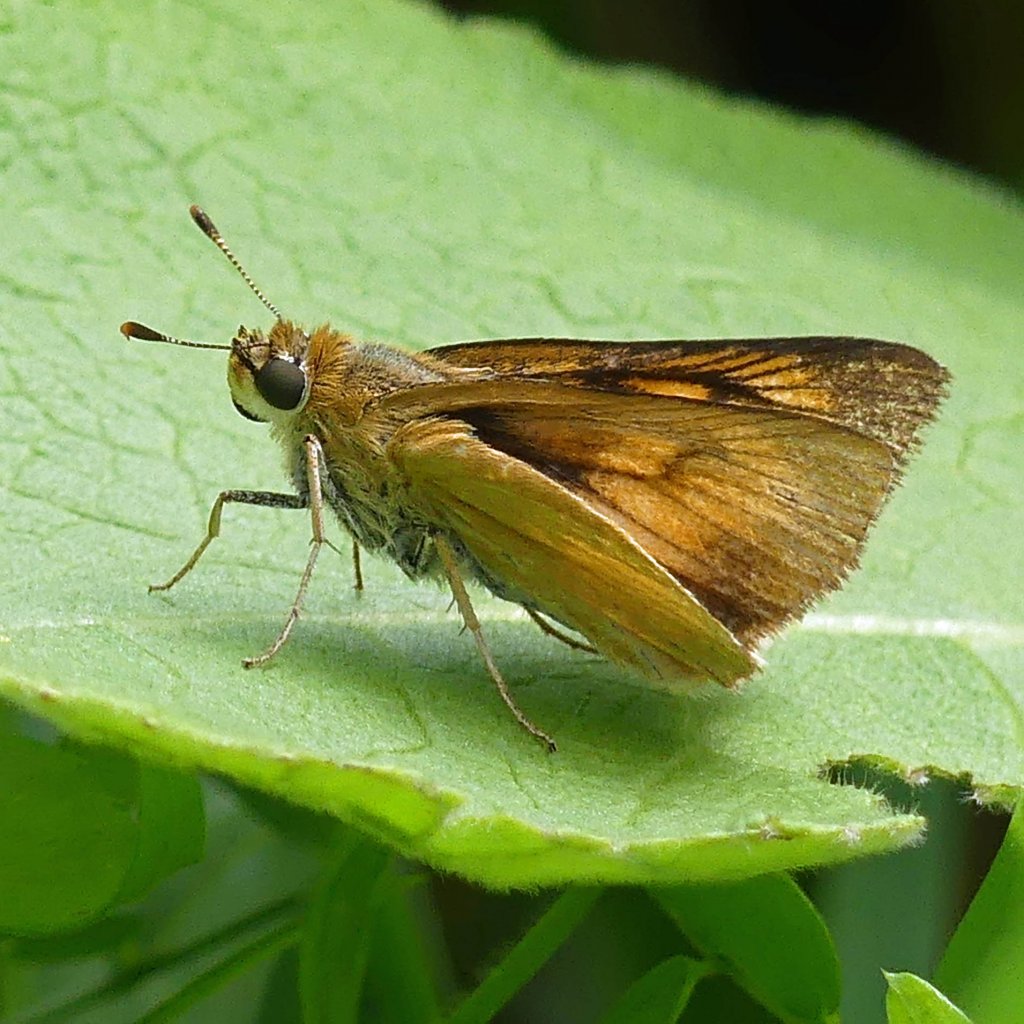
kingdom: Animalia
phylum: Arthropoda
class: Insecta
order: Lepidoptera
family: Hesperiidae
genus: Atrytone
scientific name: Atrytone delaware
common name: Delaware Skipper
